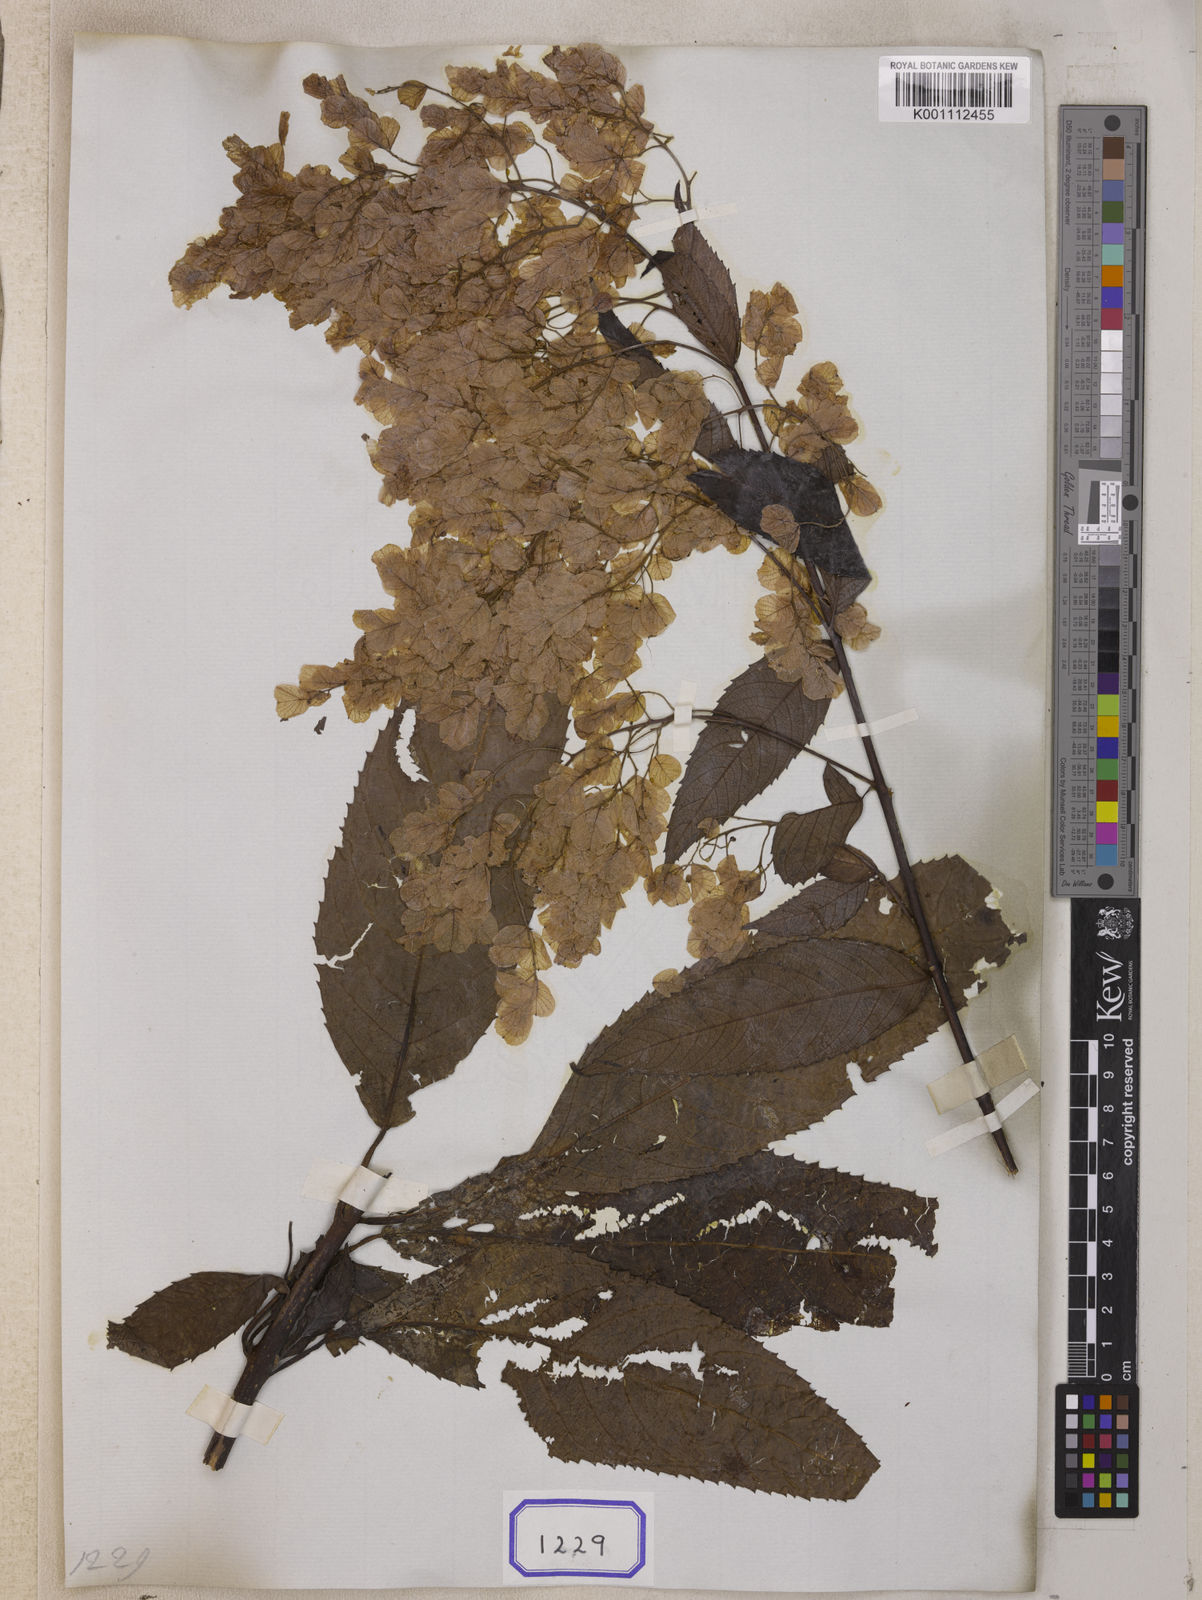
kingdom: Plantae
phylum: Tracheophyta
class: Magnoliopsida
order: Sapindales
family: Anacardiaceae
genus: Dobinea
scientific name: Dobinea
